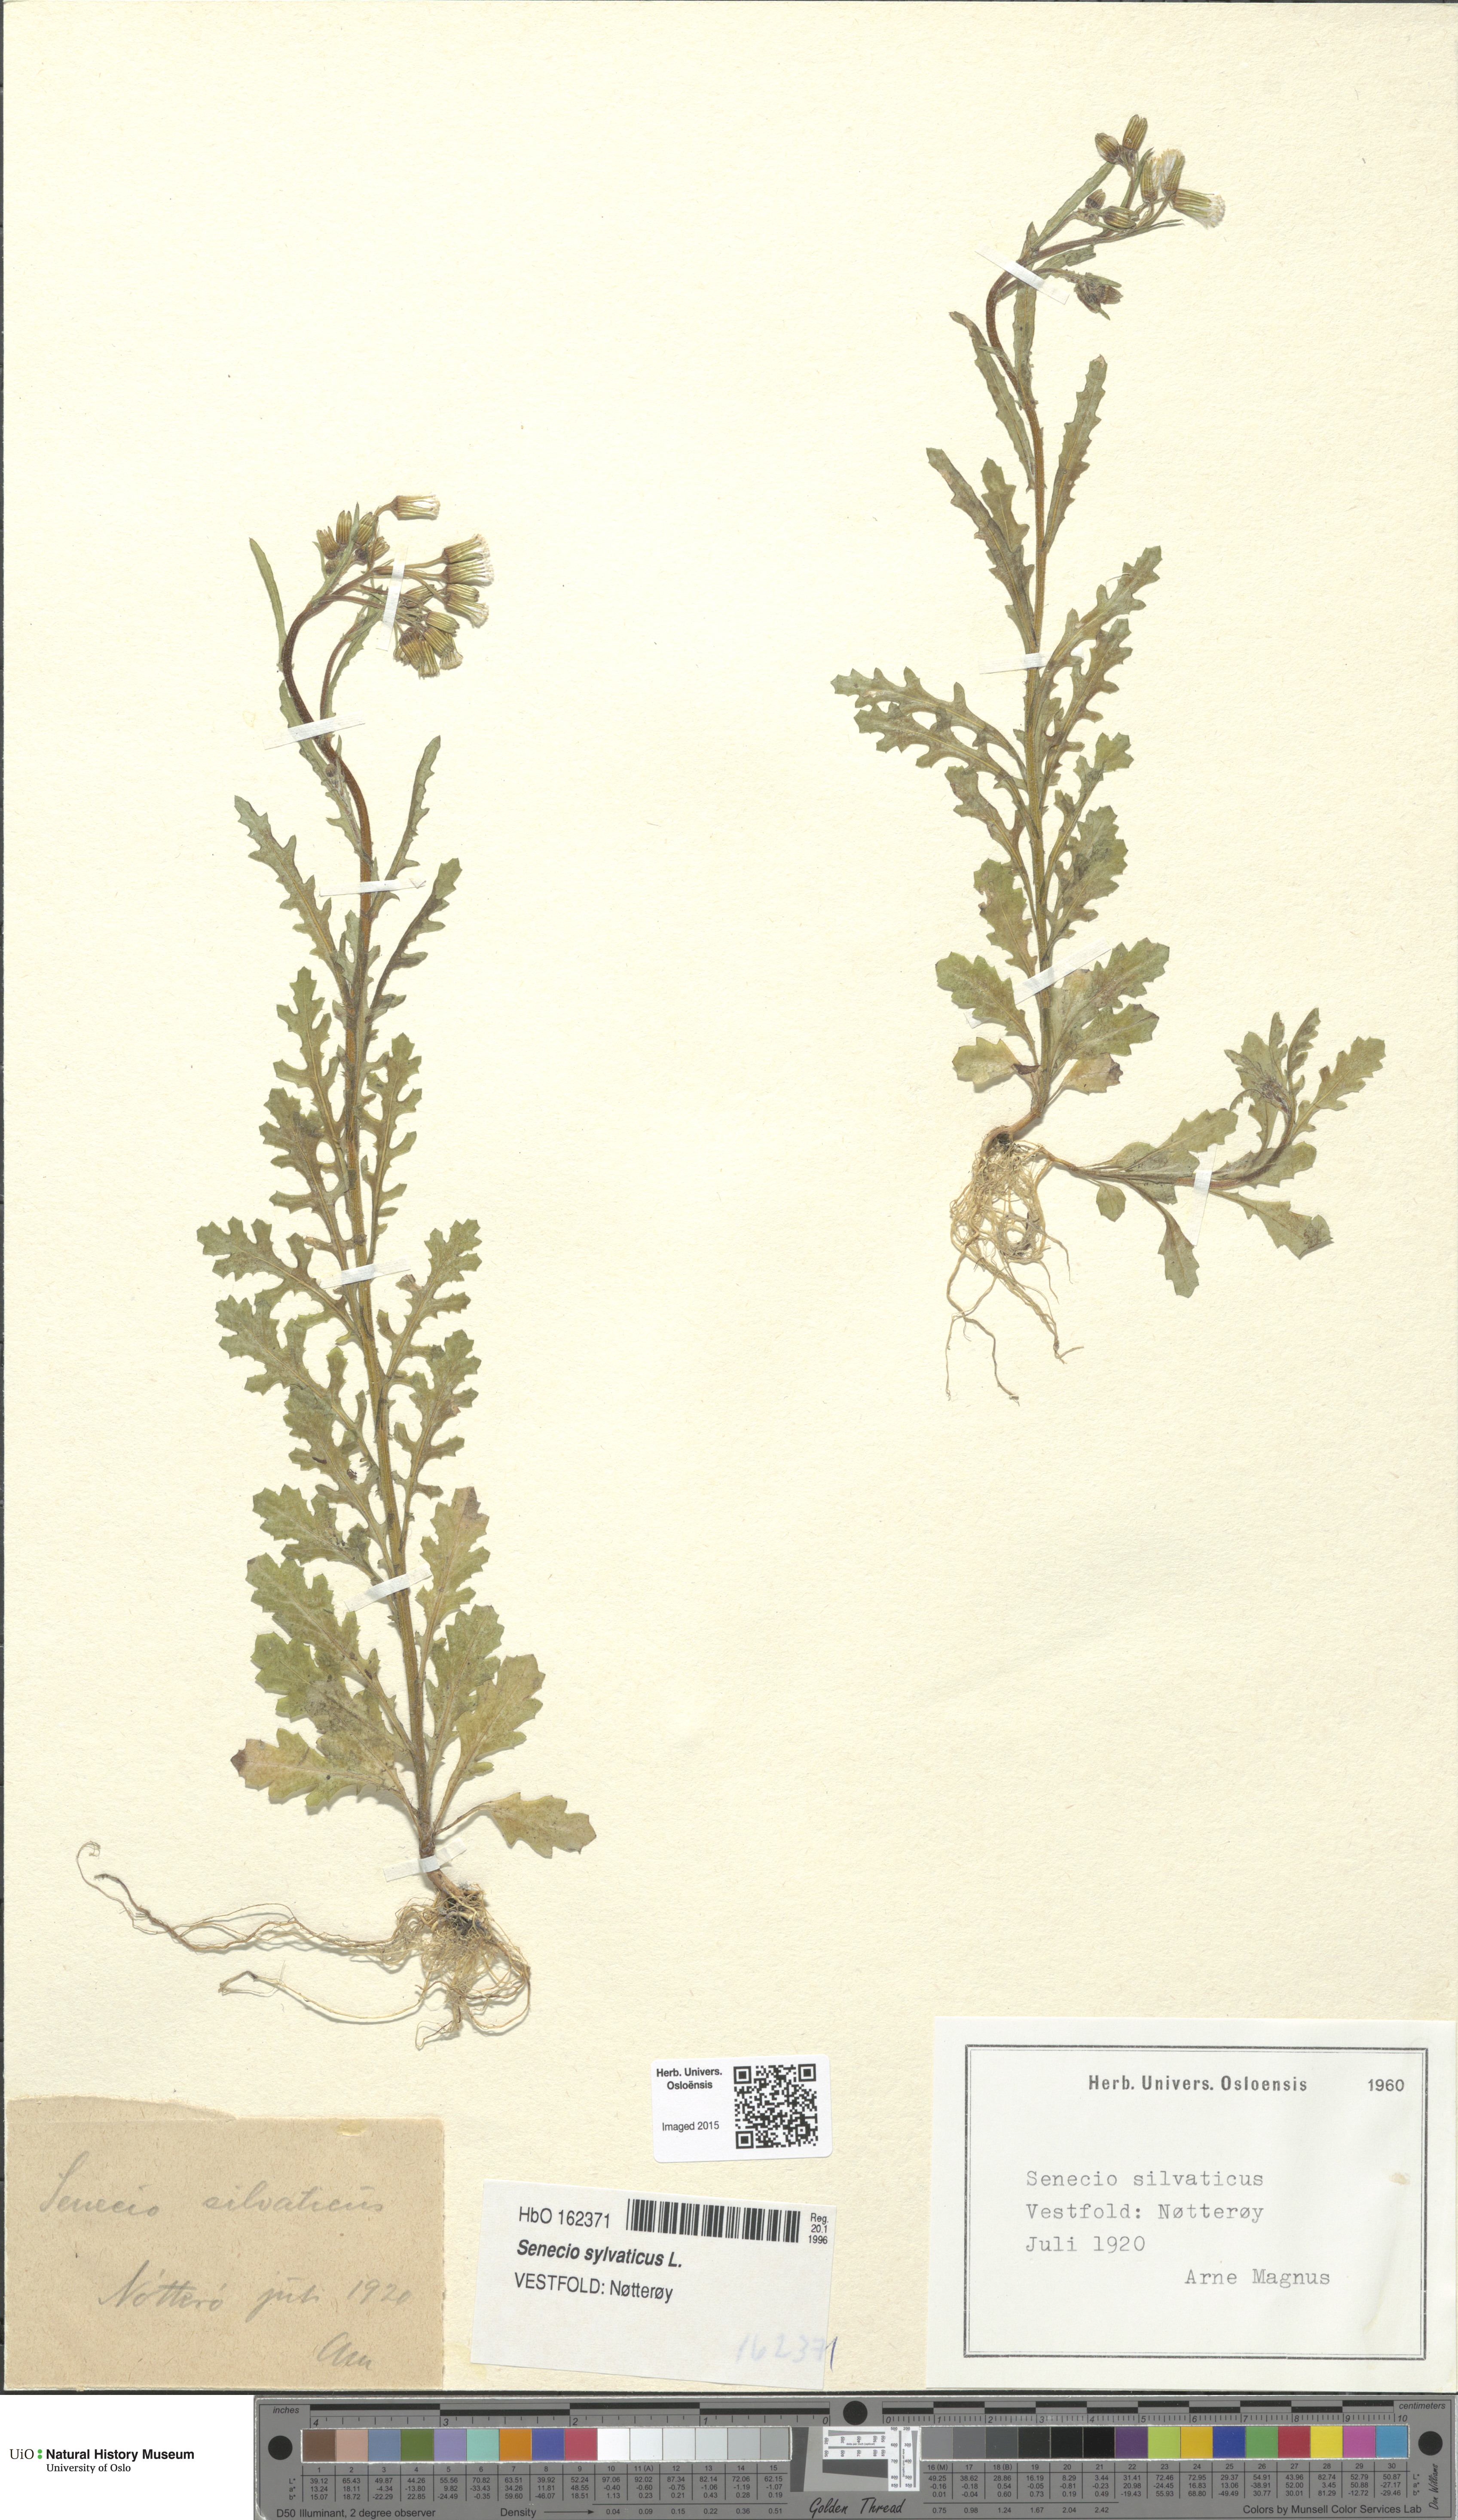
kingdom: Plantae
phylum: Tracheophyta
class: Magnoliopsida
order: Asterales
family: Asteraceae
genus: Senecio
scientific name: Senecio sylvaticus
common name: Woodland ragwort
